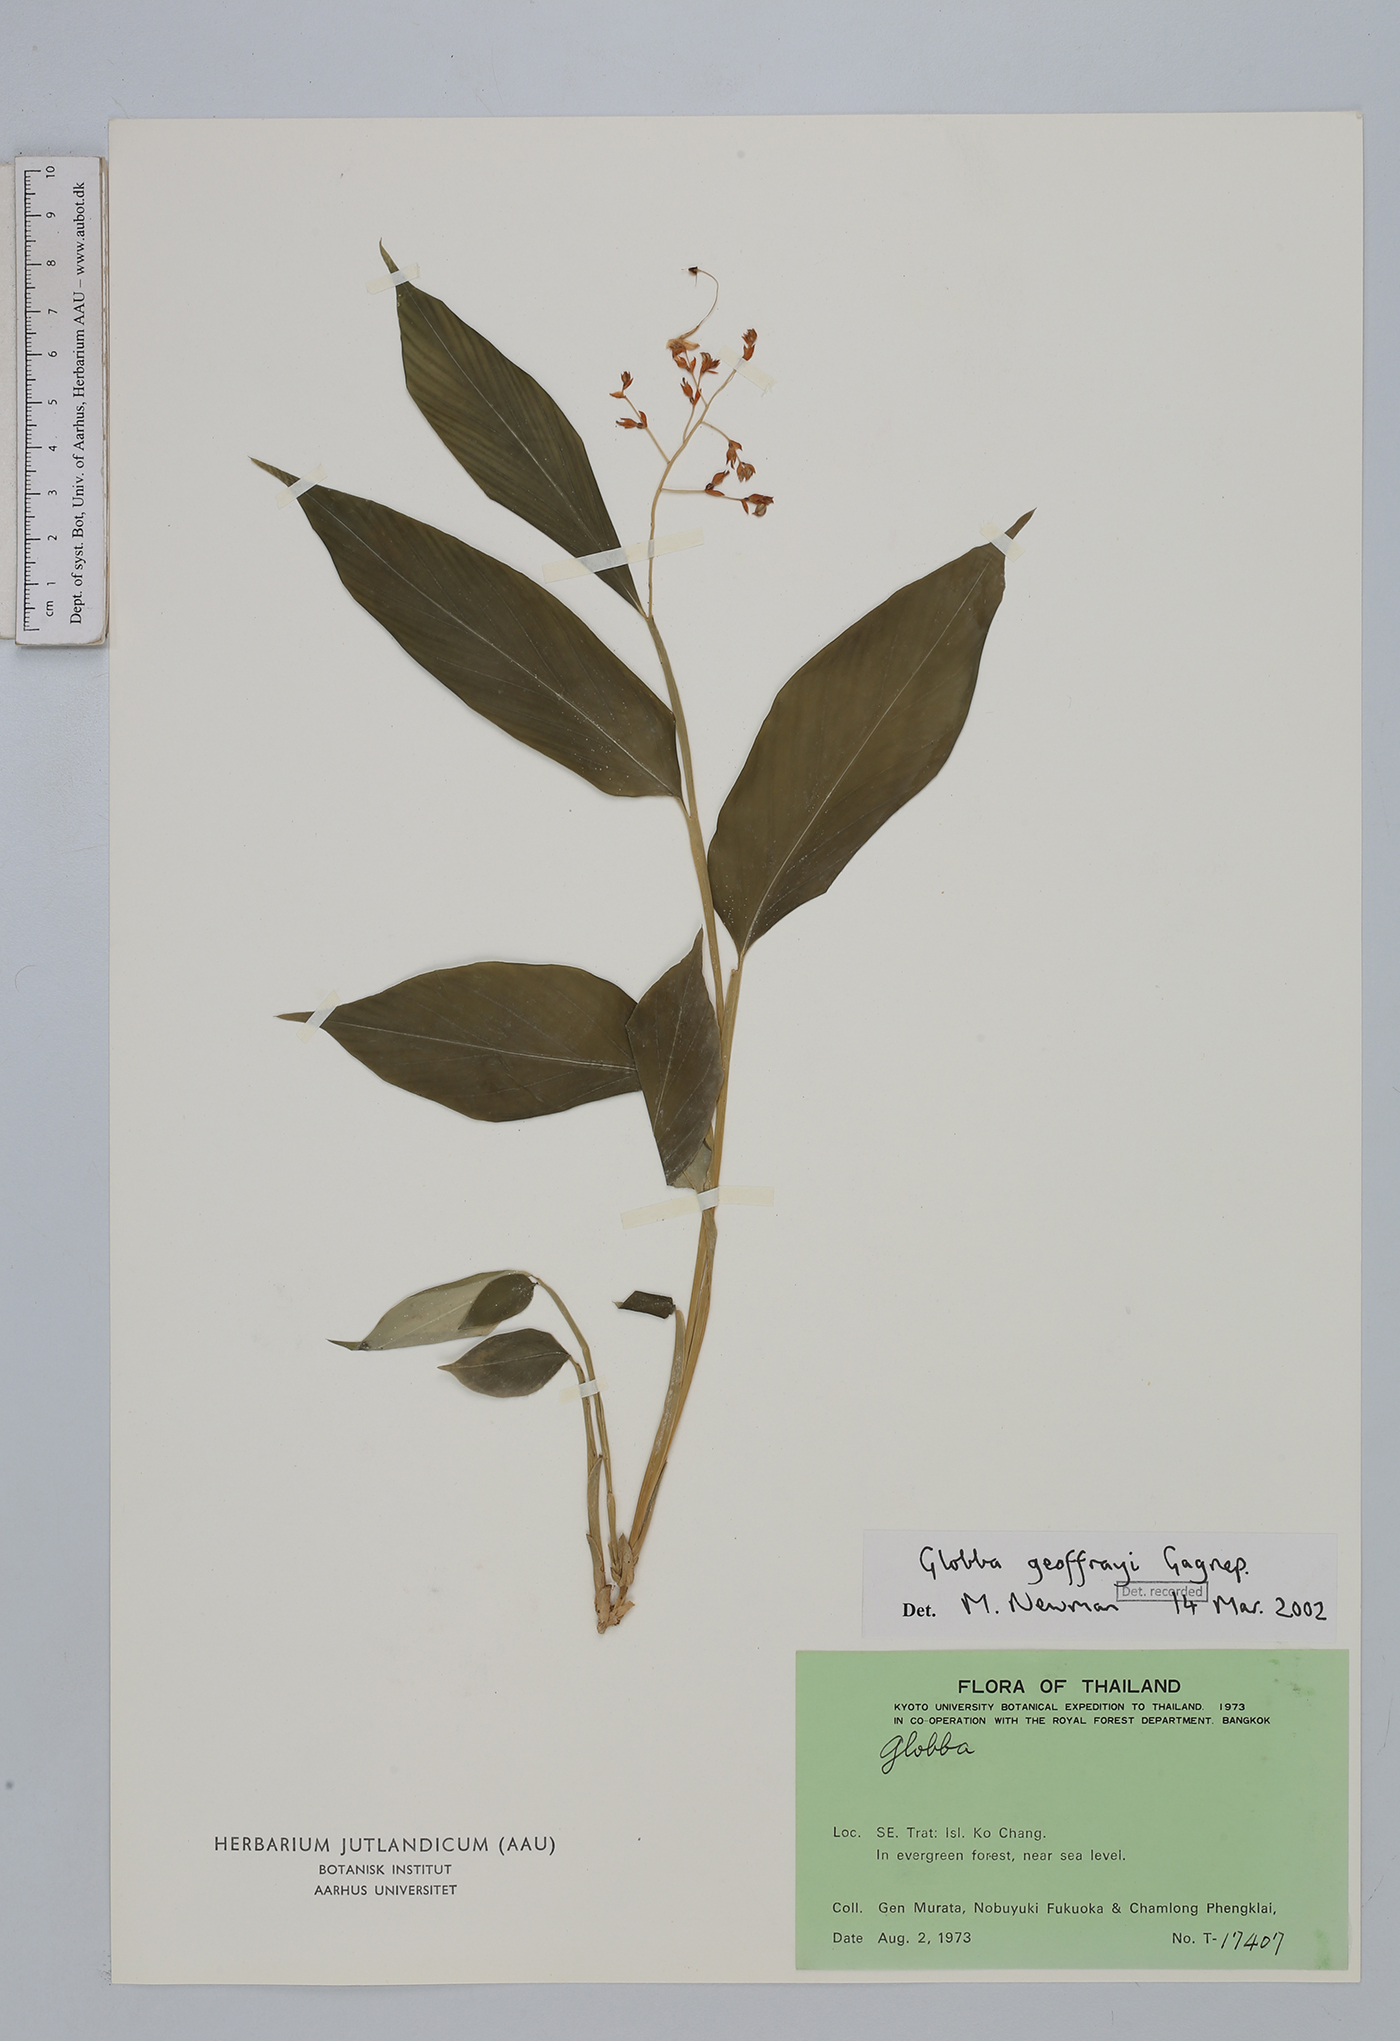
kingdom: Plantae
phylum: Tracheophyta
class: Liliopsida
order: Zingiberales
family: Zingiberaceae
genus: Globba
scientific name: Globba geoffrayi
